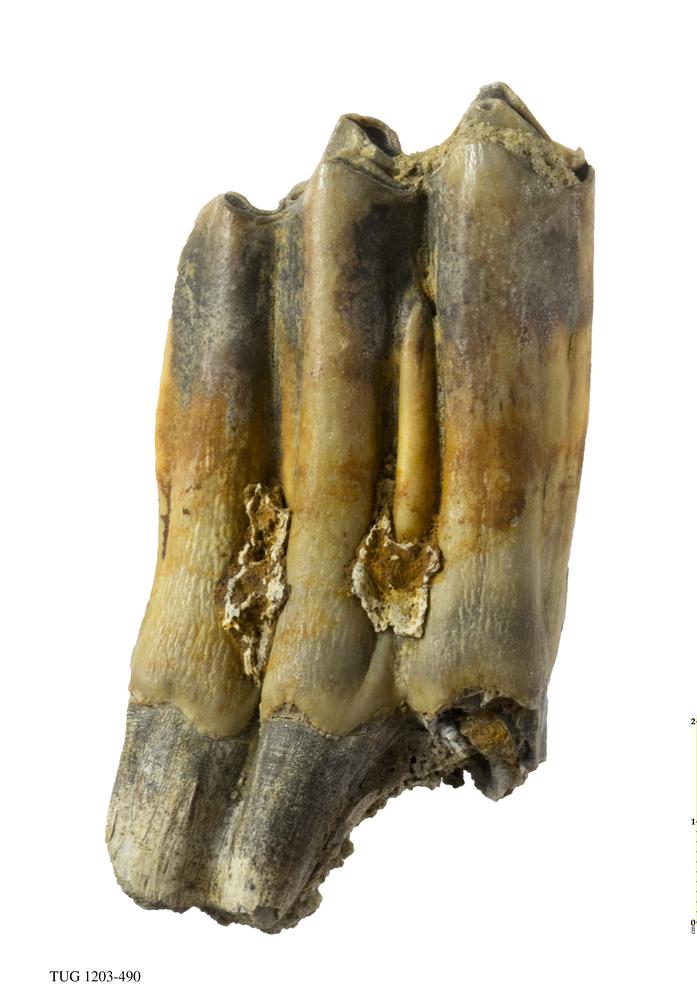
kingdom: Animalia
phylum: Chordata
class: Mammalia
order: Artiodactyla
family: Bovidae
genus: Bos
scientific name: Bos
